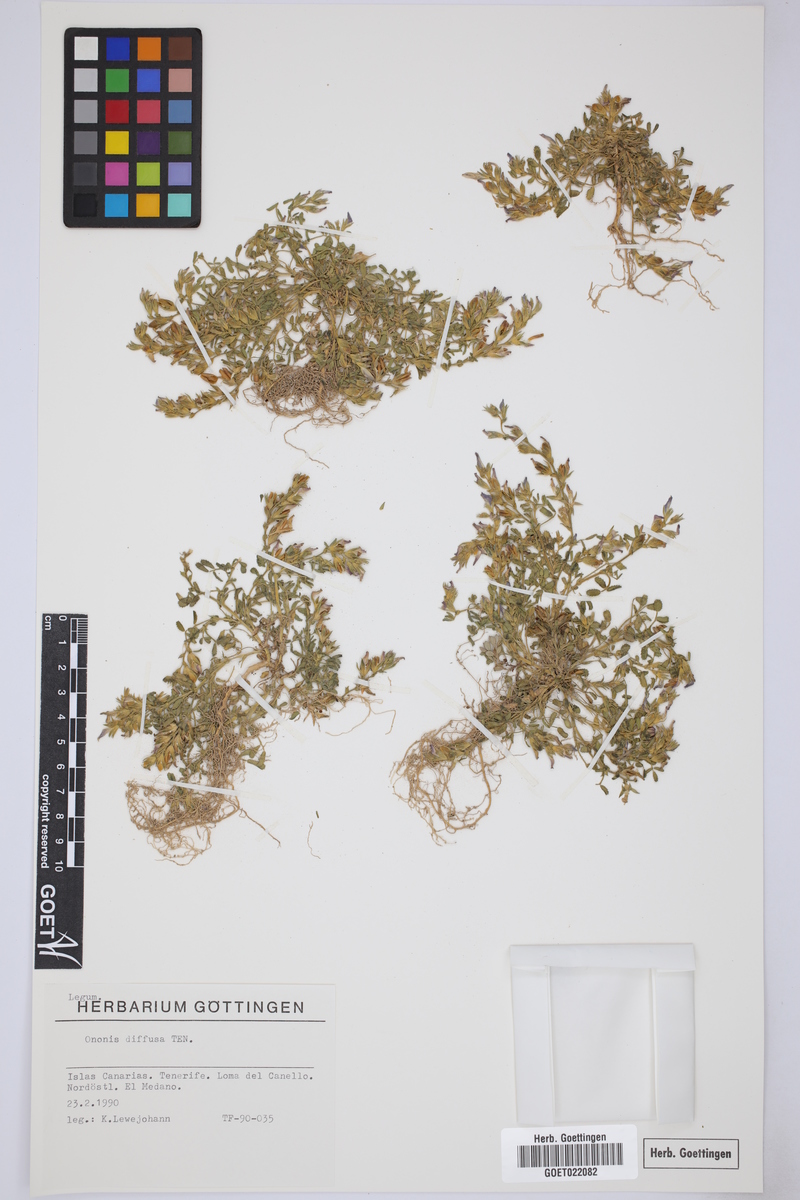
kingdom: Plantae
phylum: Tracheophyta
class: Magnoliopsida
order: Fabales
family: Fabaceae
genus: Ononis
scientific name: Ononis diffusa
